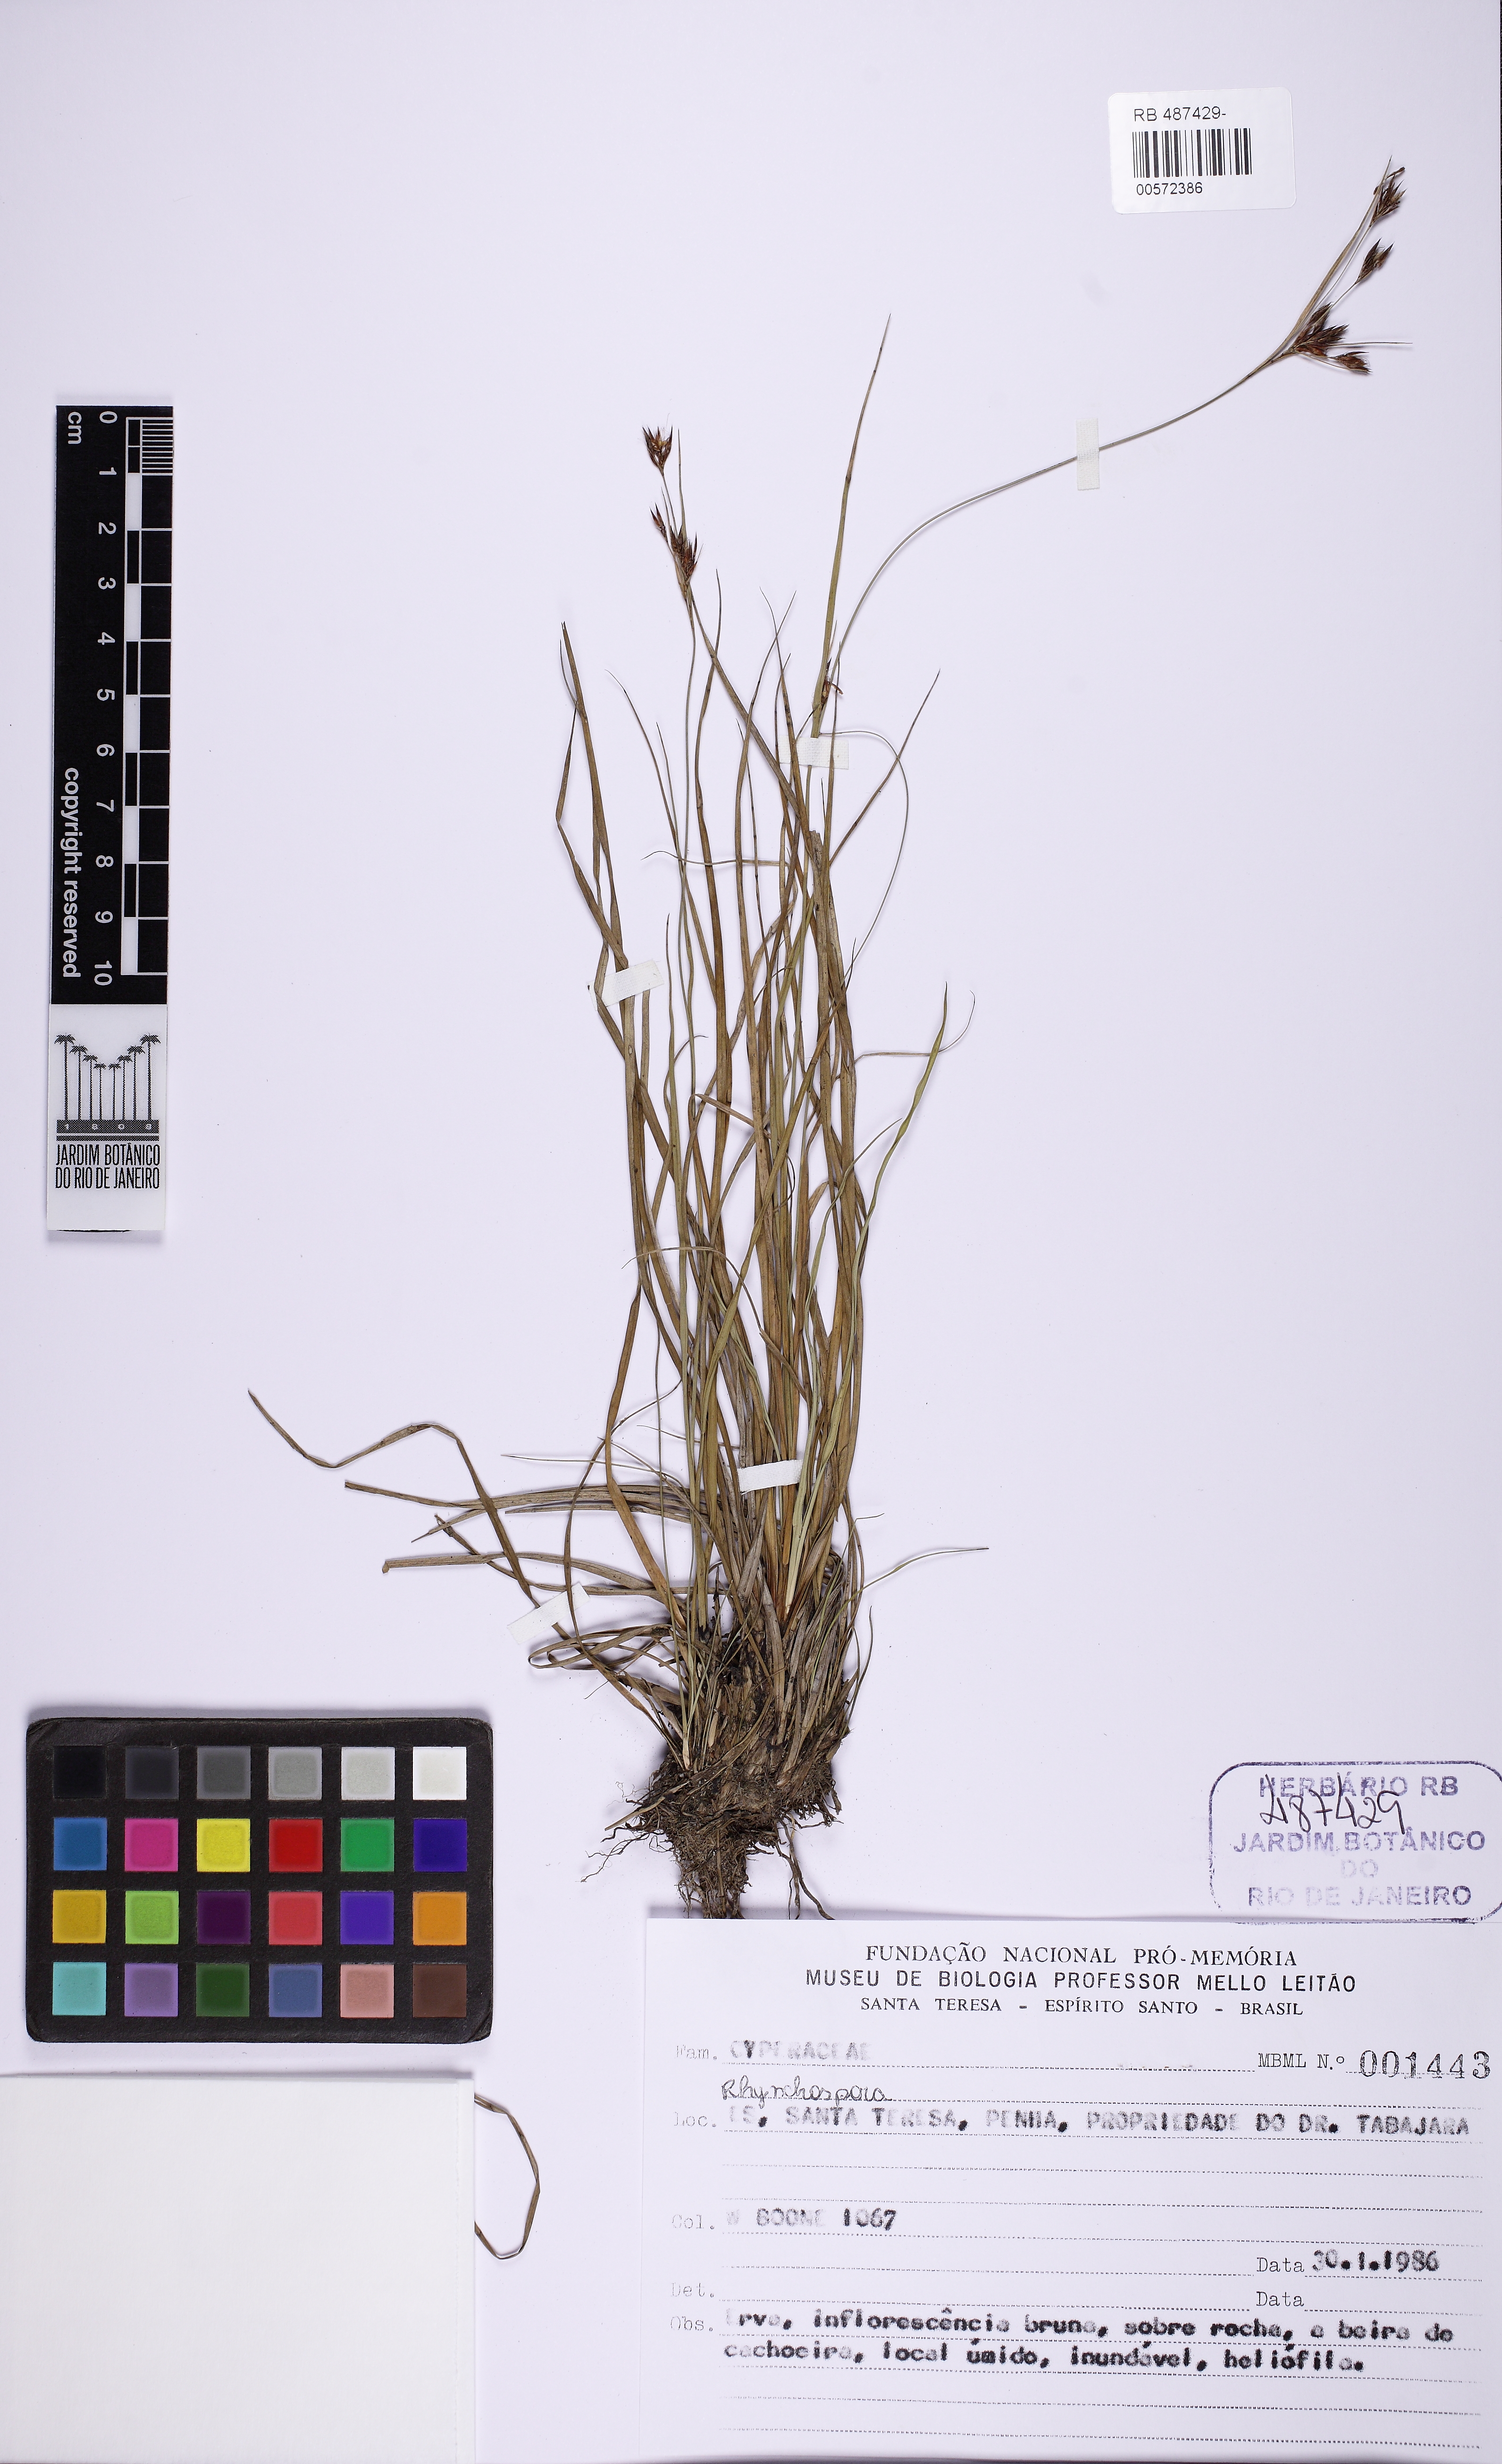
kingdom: Plantae
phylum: Tracheophyta
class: Liliopsida
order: Poales
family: Cyperaceae
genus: Rhynchospora
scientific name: Rhynchospora marisculus
